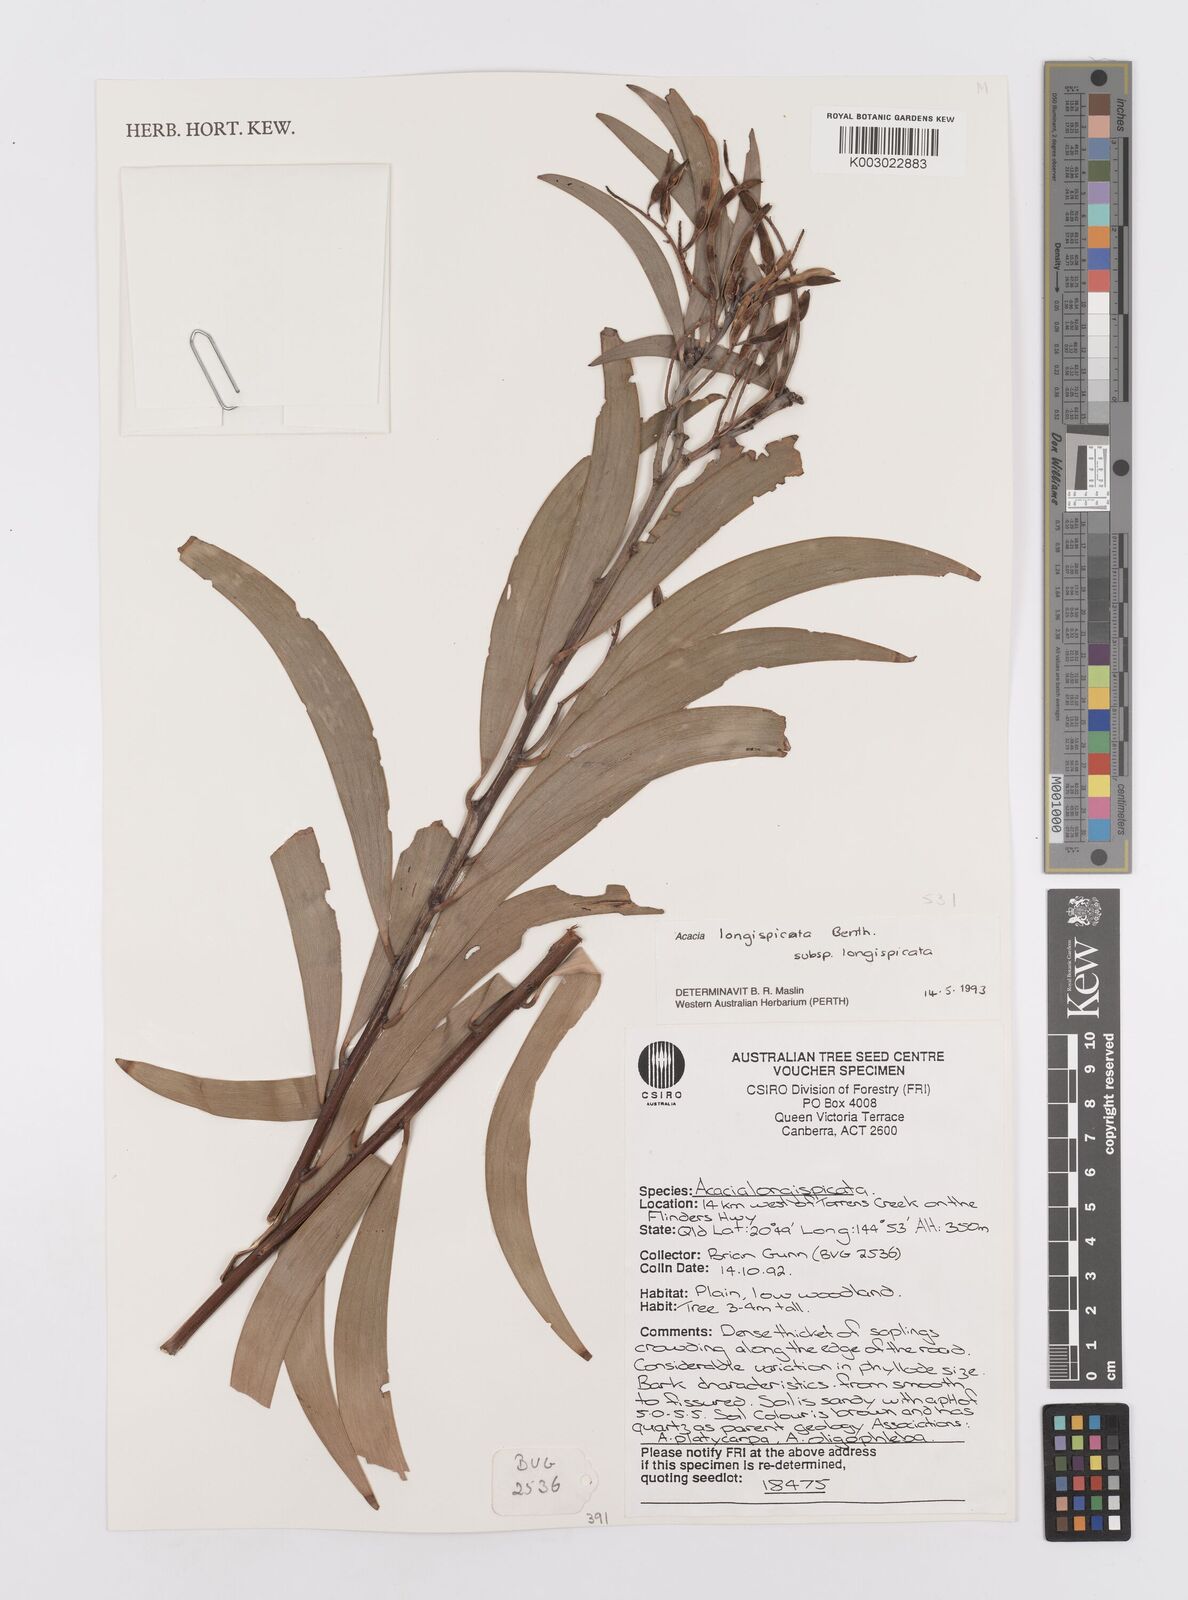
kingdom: Plantae
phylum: Tracheophyta
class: Magnoliopsida
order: Fabales
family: Fabaceae
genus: Acacia
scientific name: Acacia longispicata
